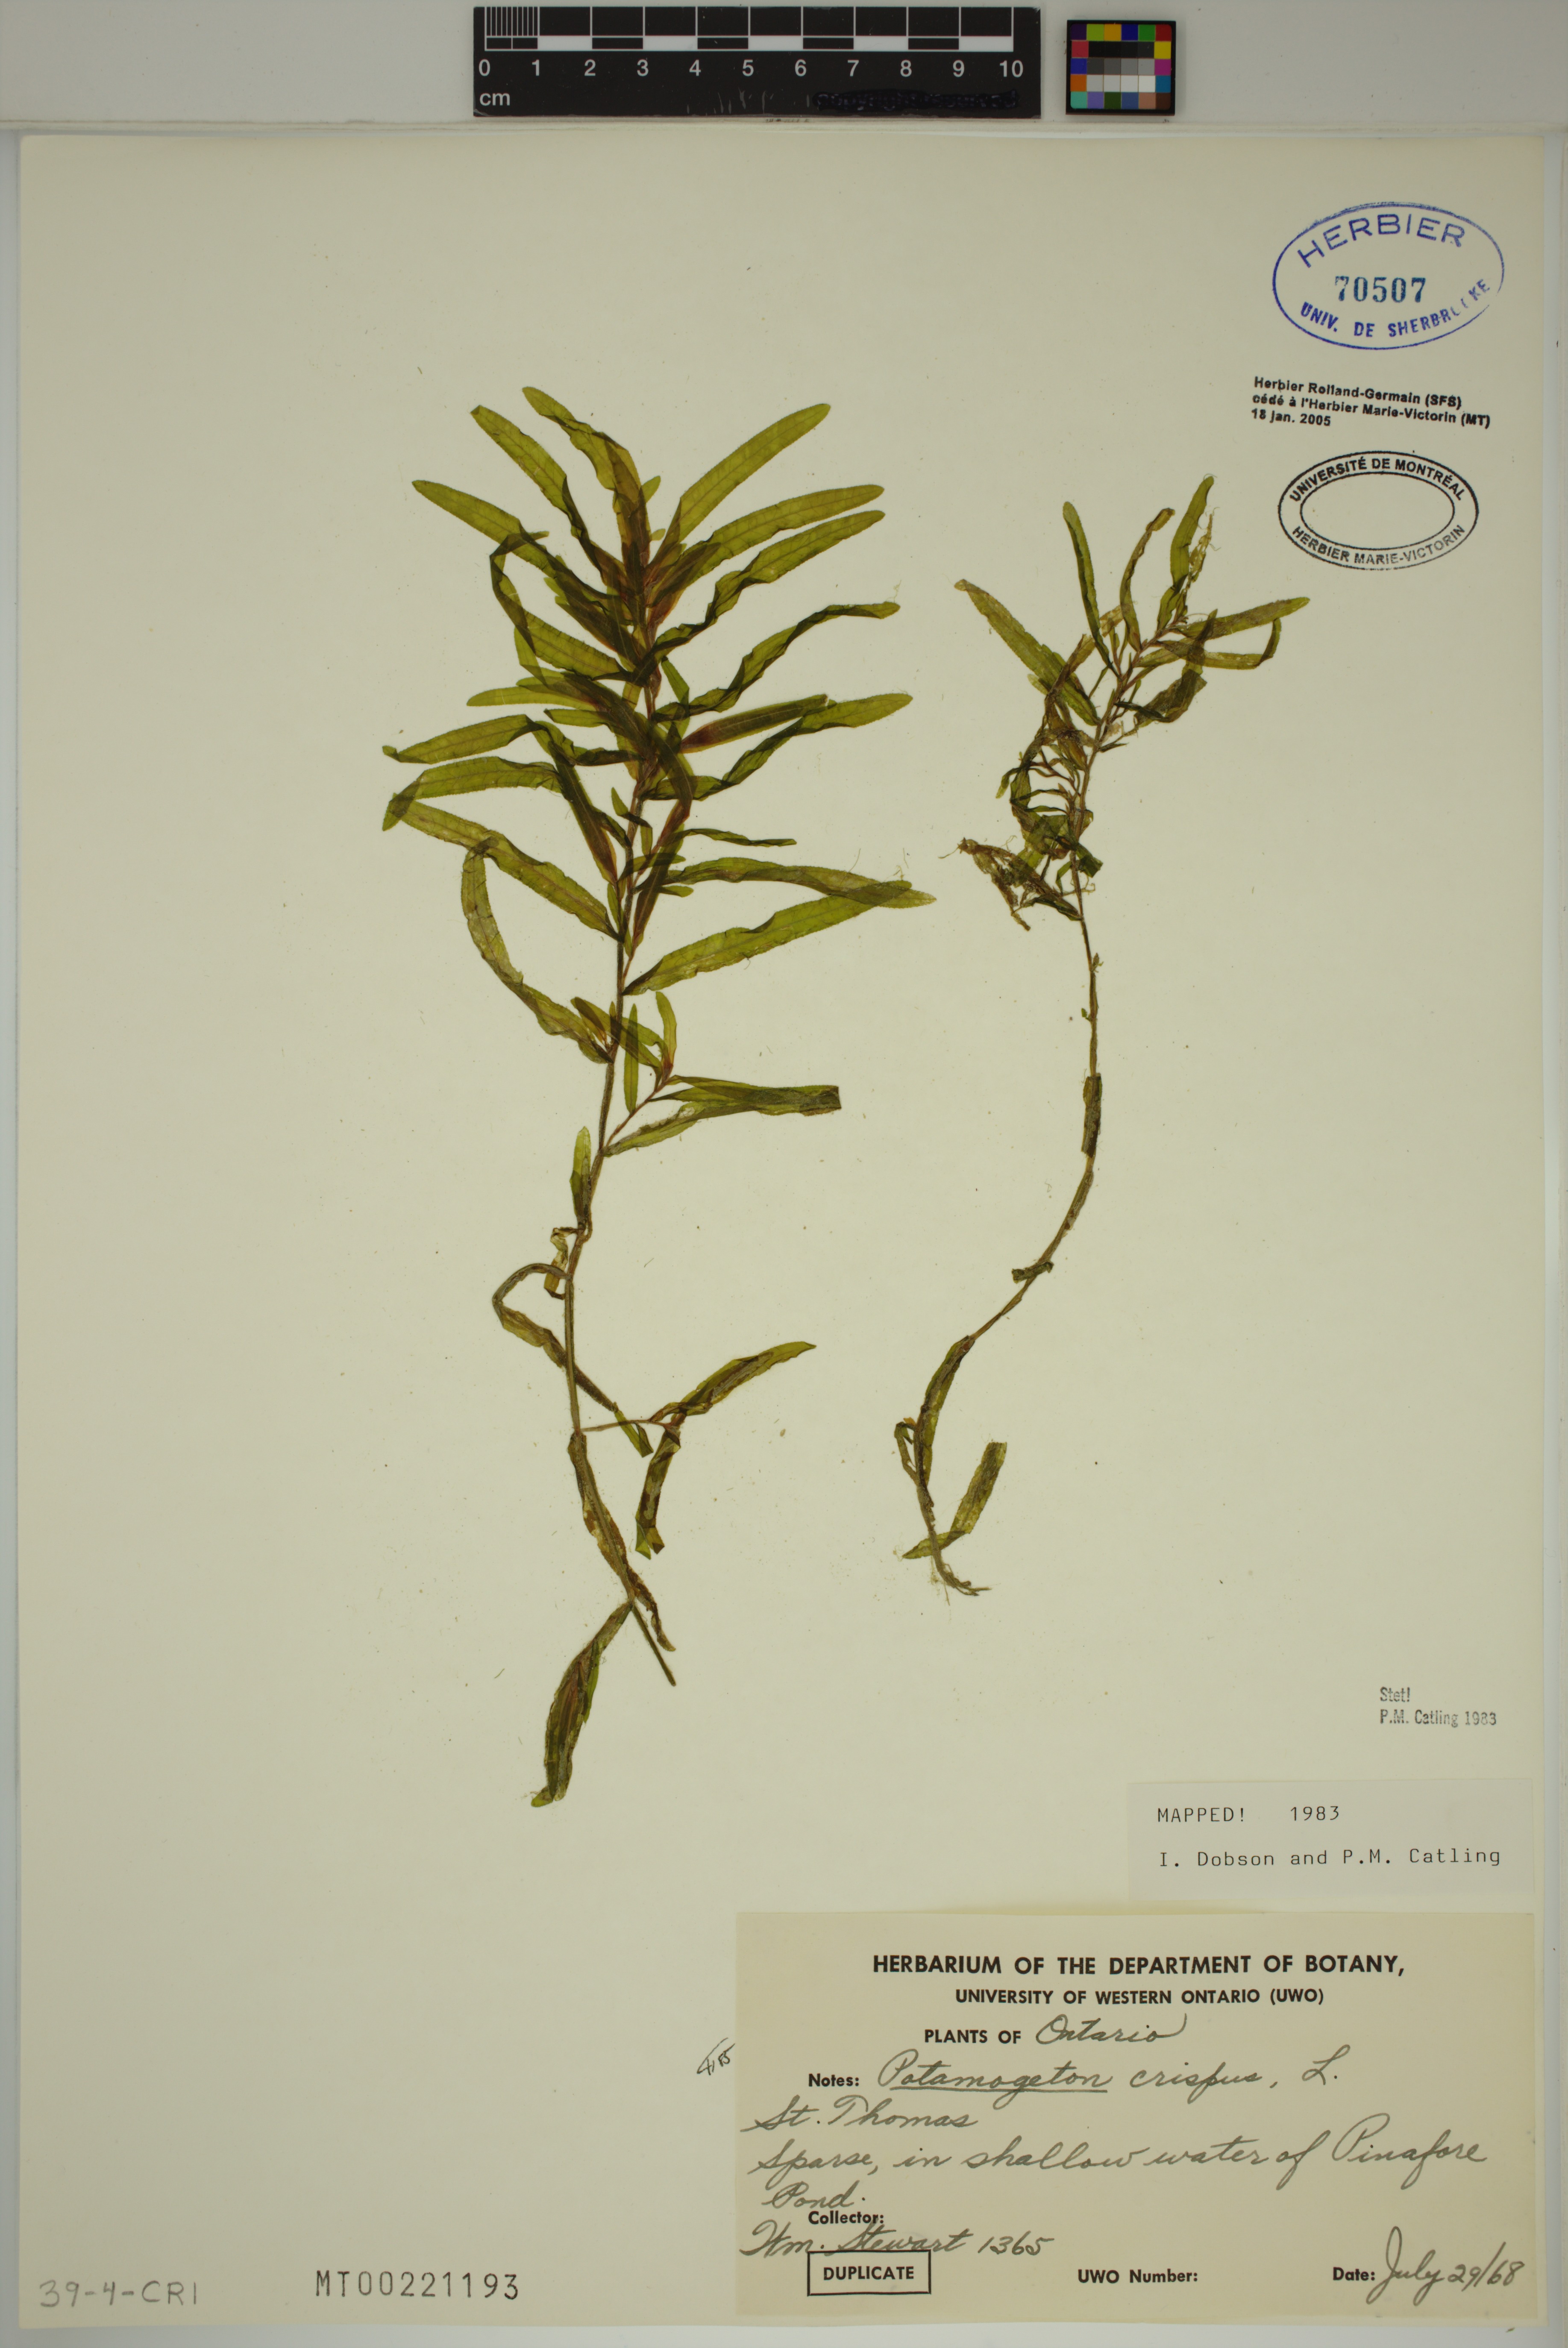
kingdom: Plantae
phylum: Tracheophyta
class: Liliopsida
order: Alismatales
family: Potamogetonaceae
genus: Potamogeton
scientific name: Potamogeton crispus
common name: Curled pondweed
